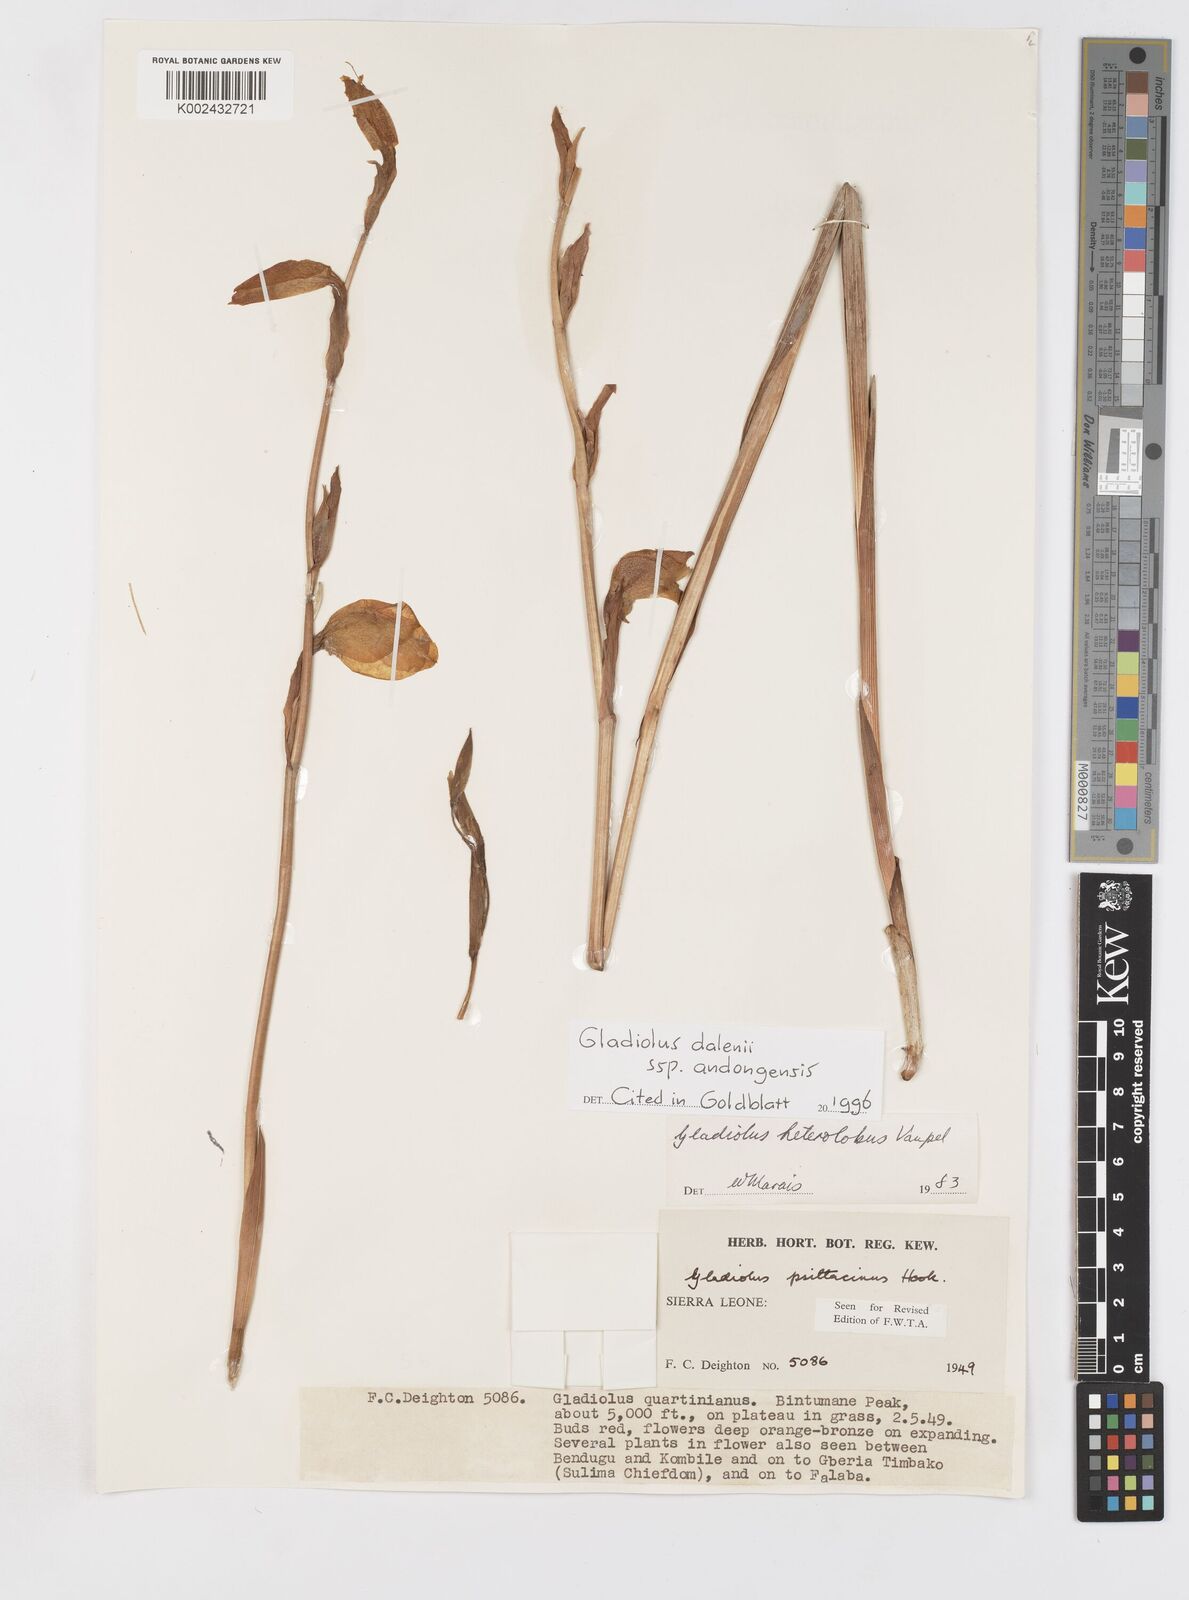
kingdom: Plantae
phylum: Tracheophyta
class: Liliopsida
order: Asparagales
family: Iridaceae
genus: Gladiolus
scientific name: Gladiolus dalenii
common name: Cornflag
